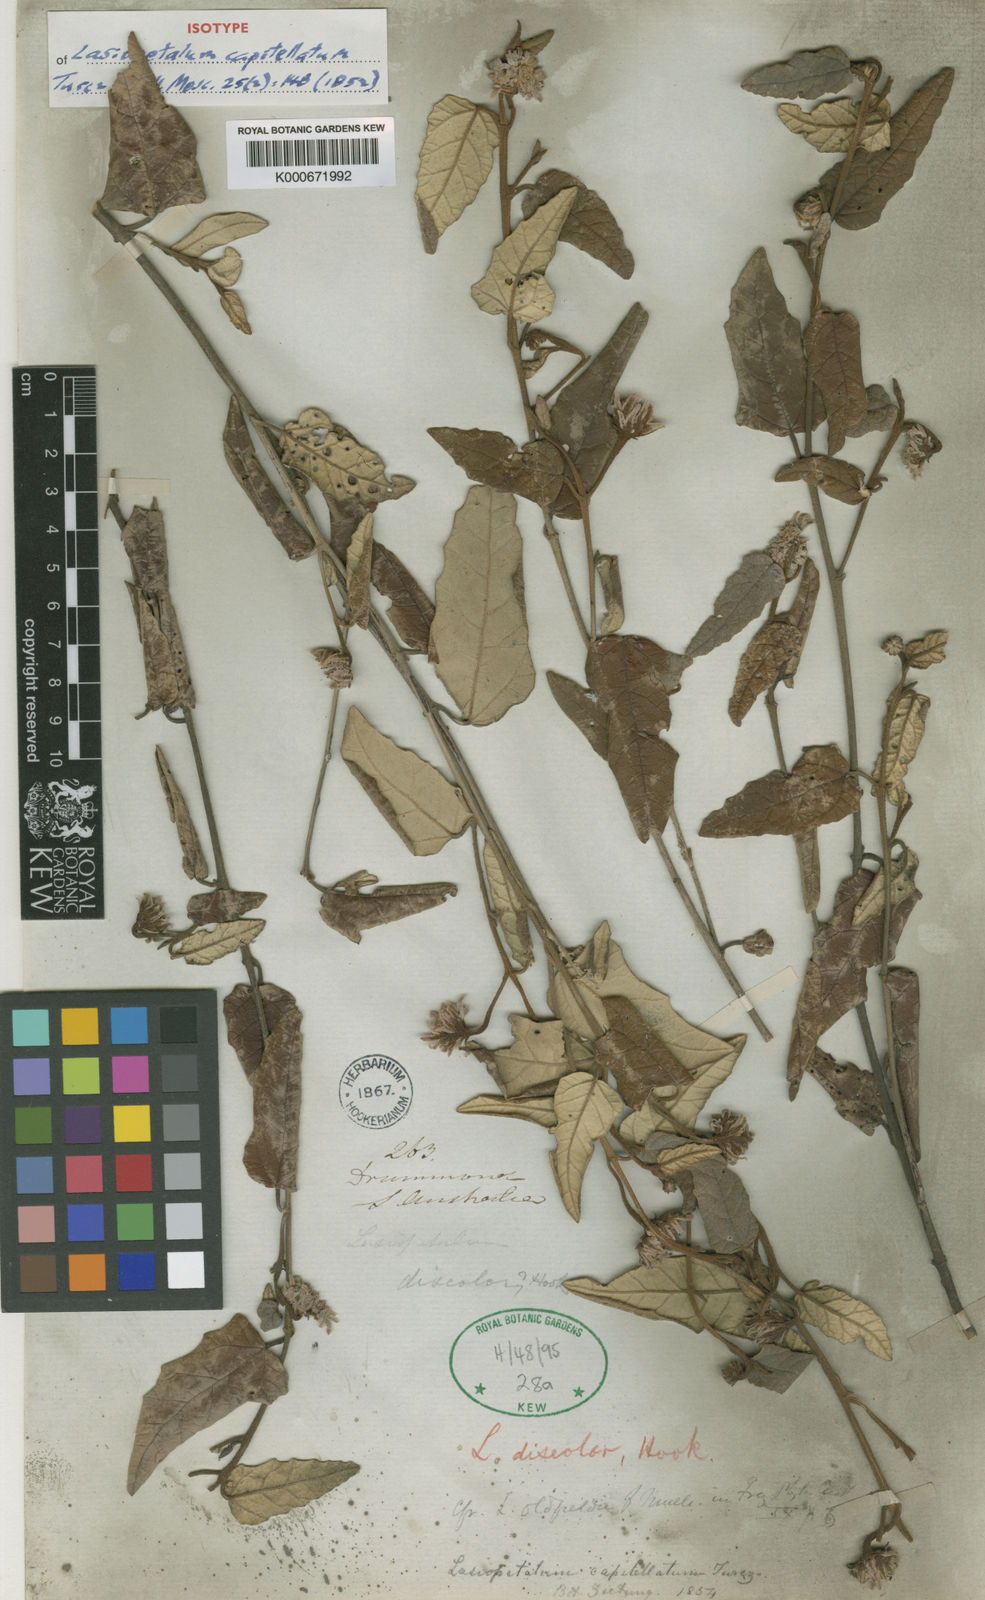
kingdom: Plantae
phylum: Tracheophyta
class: Magnoliopsida
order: Malvales
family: Malvaceae
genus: Lasiopetalum
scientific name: Lasiopetalum discolor
